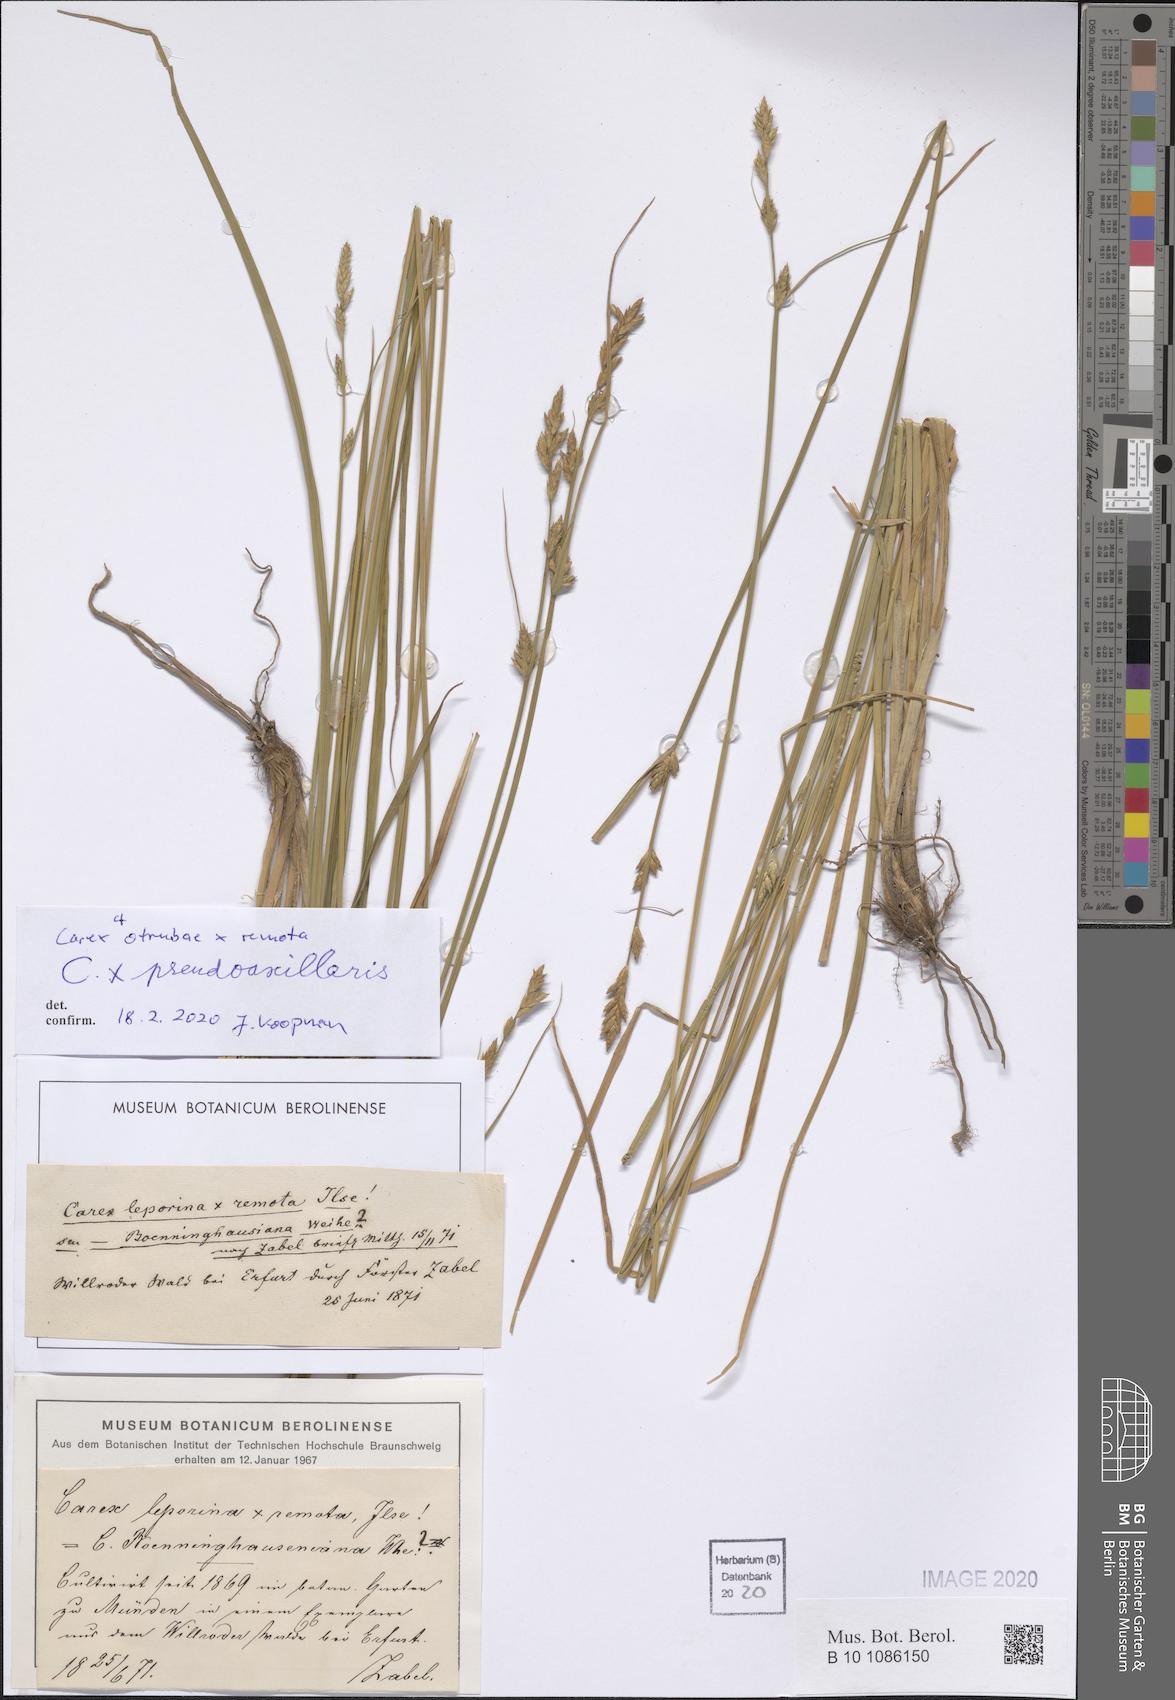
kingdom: Plantae
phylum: Tracheophyta
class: Liliopsida
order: Poales
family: Cyperaceae
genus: Carex
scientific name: Carex pseudoaxillaris
